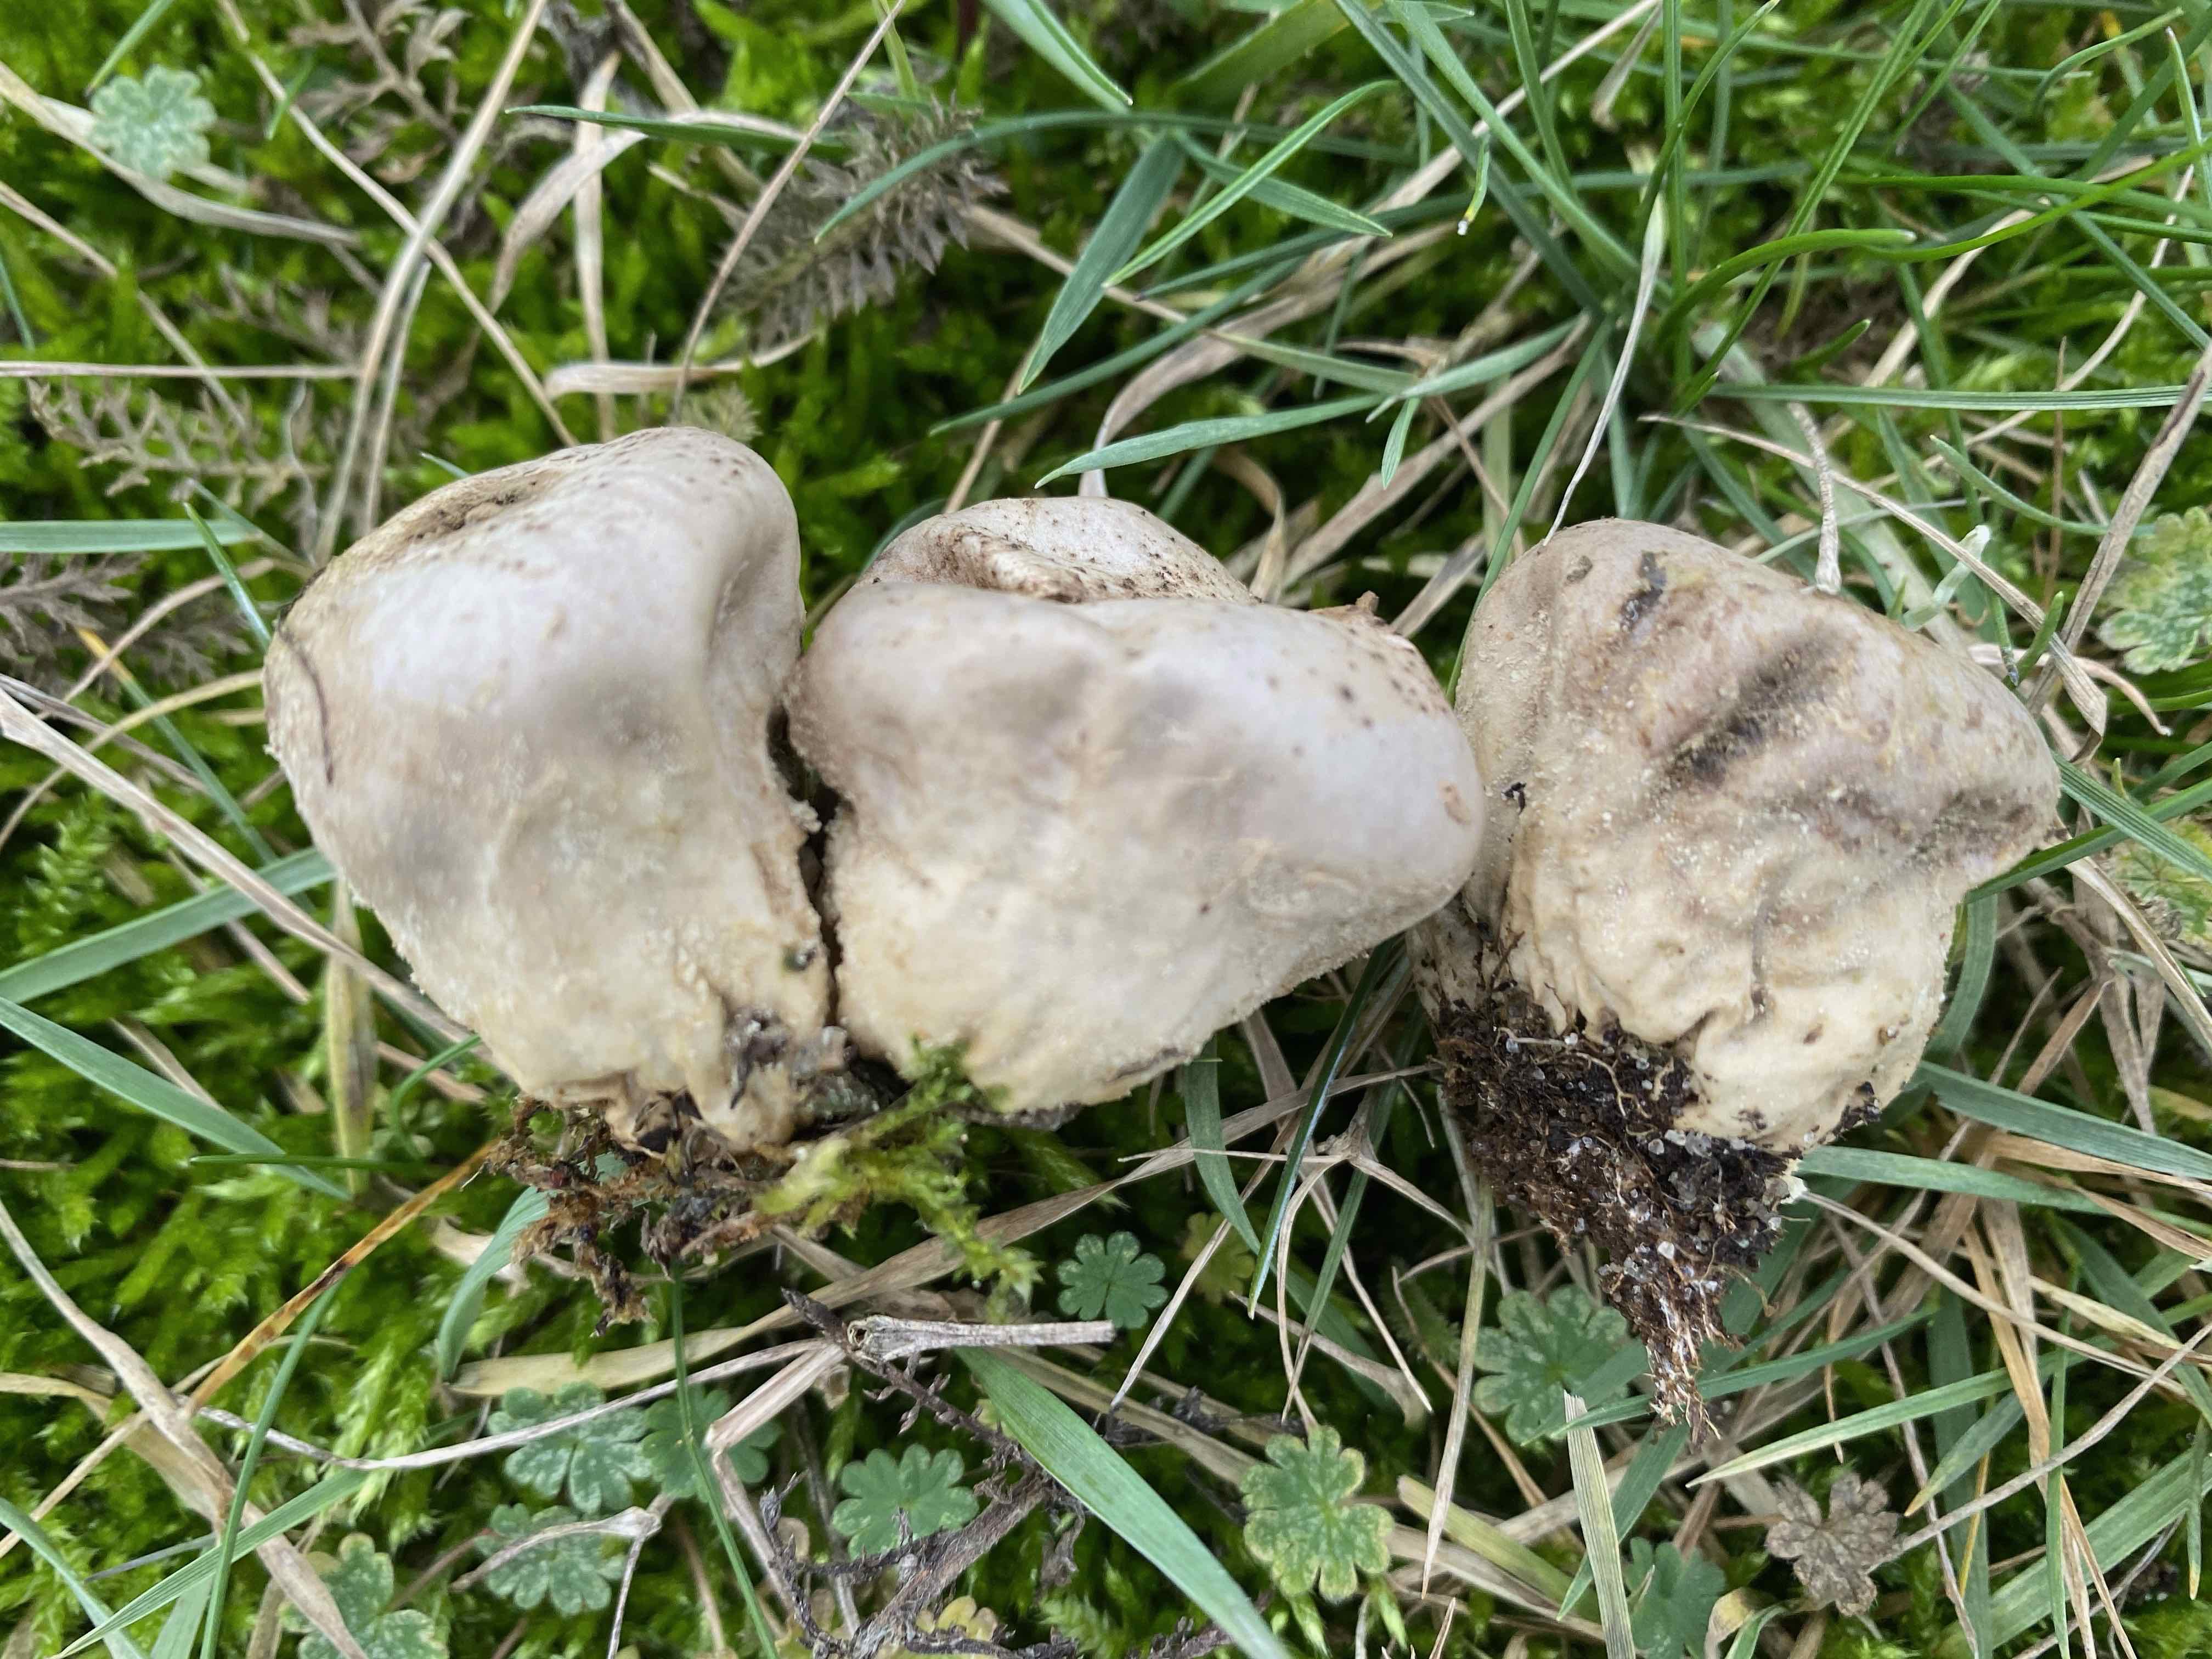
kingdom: Fungi
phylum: Basidiomycota
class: Agaricomycetes
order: Agaricales
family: Lycoperdaceae
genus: Lycoperdon
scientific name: Lycoperdon pratense
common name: flad støvbold
